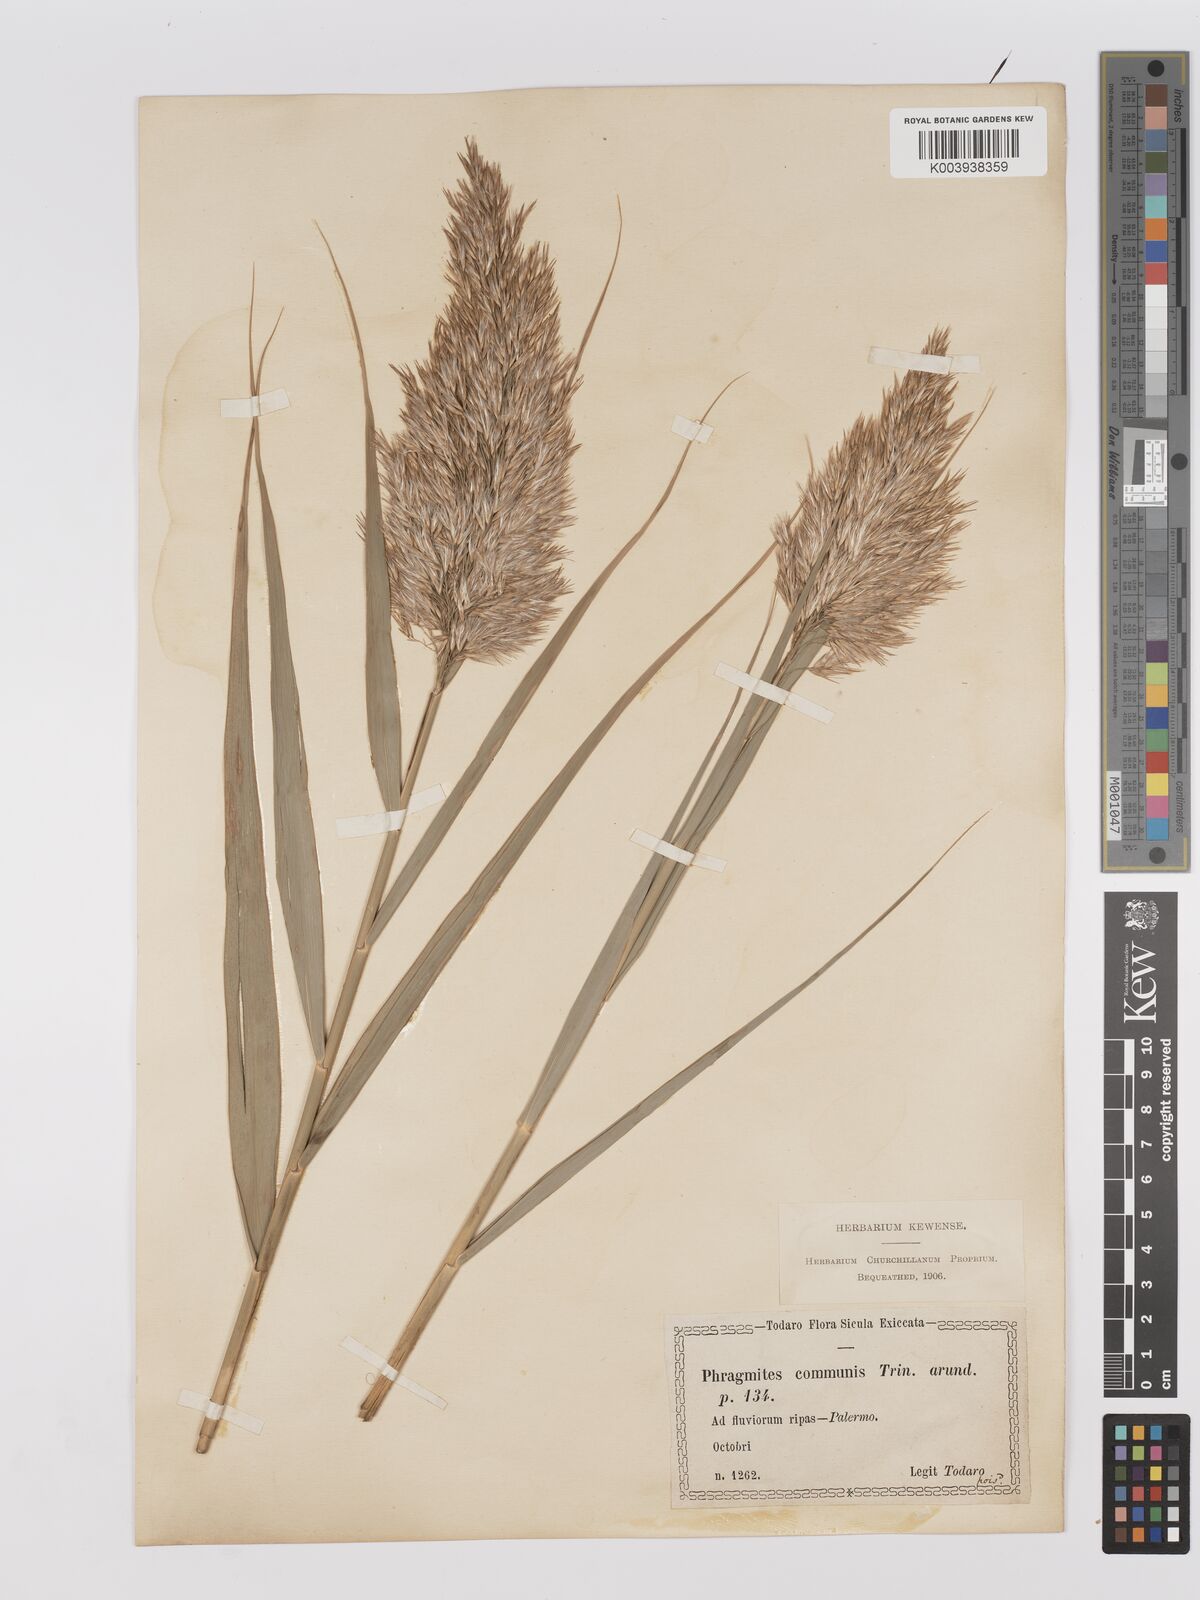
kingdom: Plantae
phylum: Tracheophyta
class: Liliopsida
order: Poales
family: Poaceae
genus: Phragmites
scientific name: Phragmites australis
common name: Common reed
